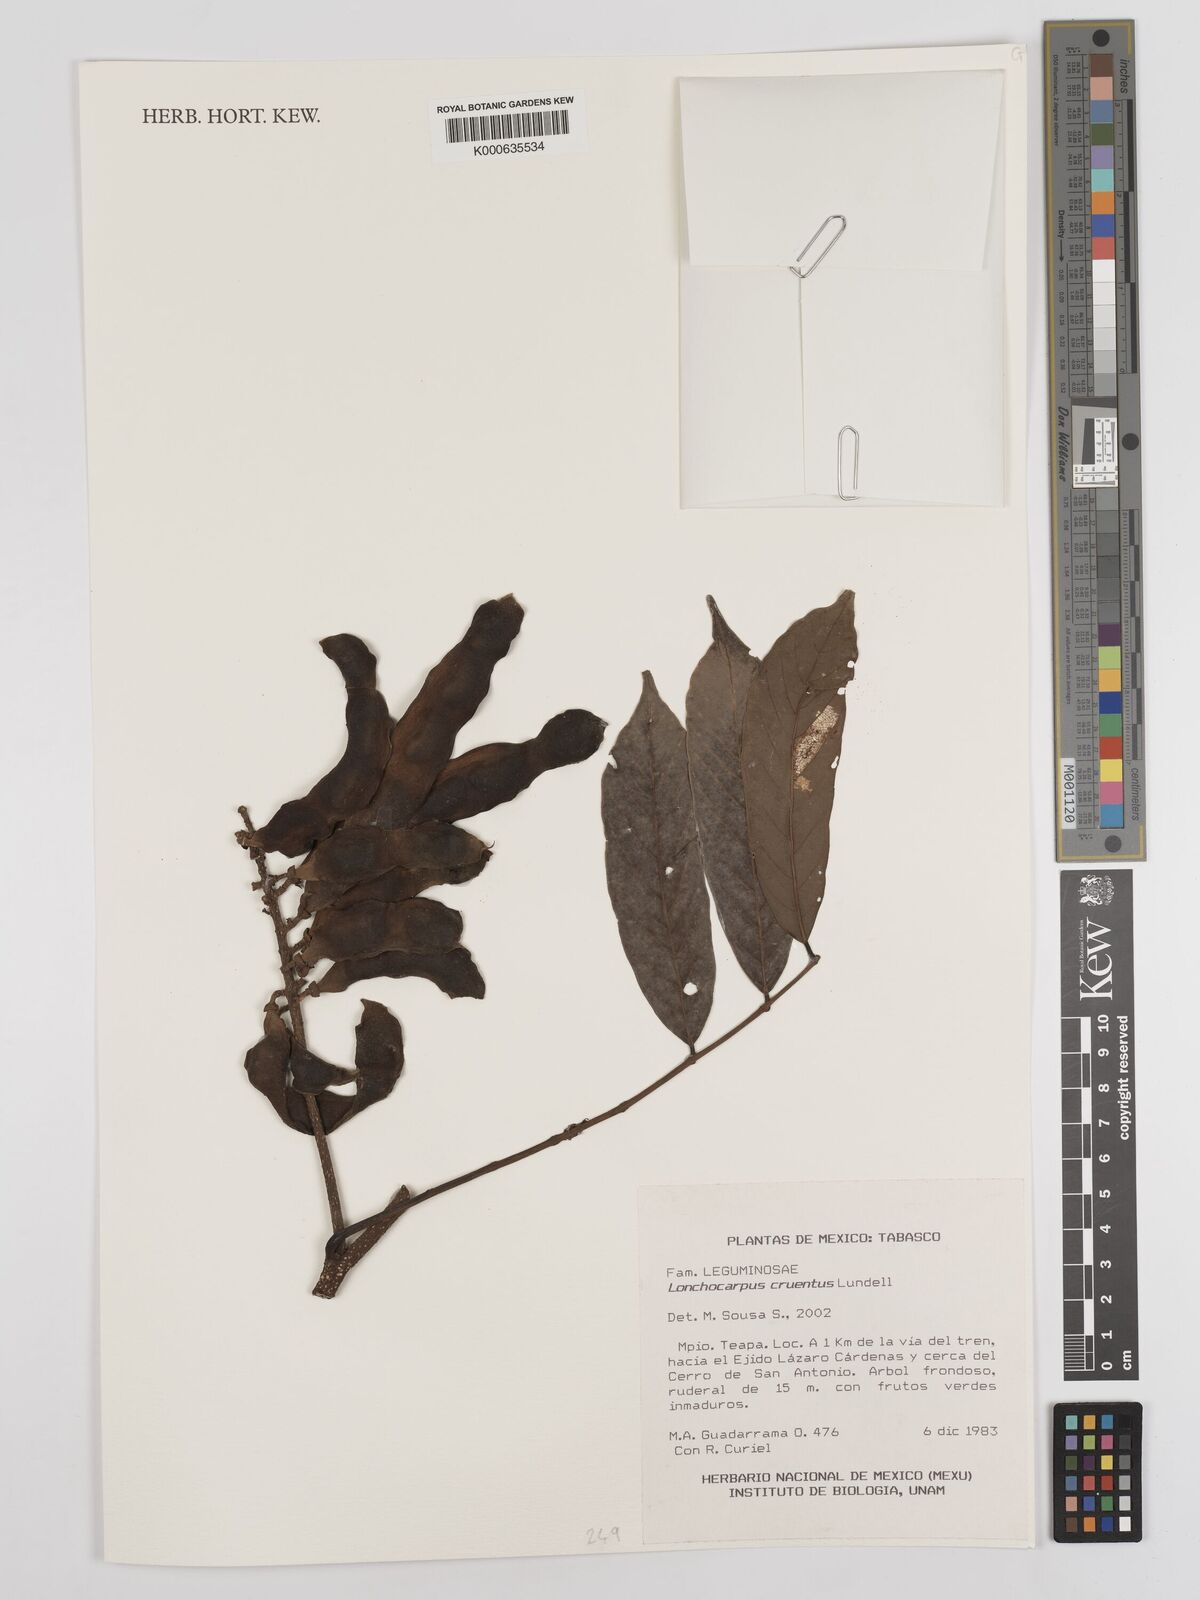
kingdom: Plantae
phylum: Tracheophyta
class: Magnoliopsida
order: Fabales
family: Fabaceae
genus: Lonchocarpus
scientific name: Lonchocarpus cruentus
